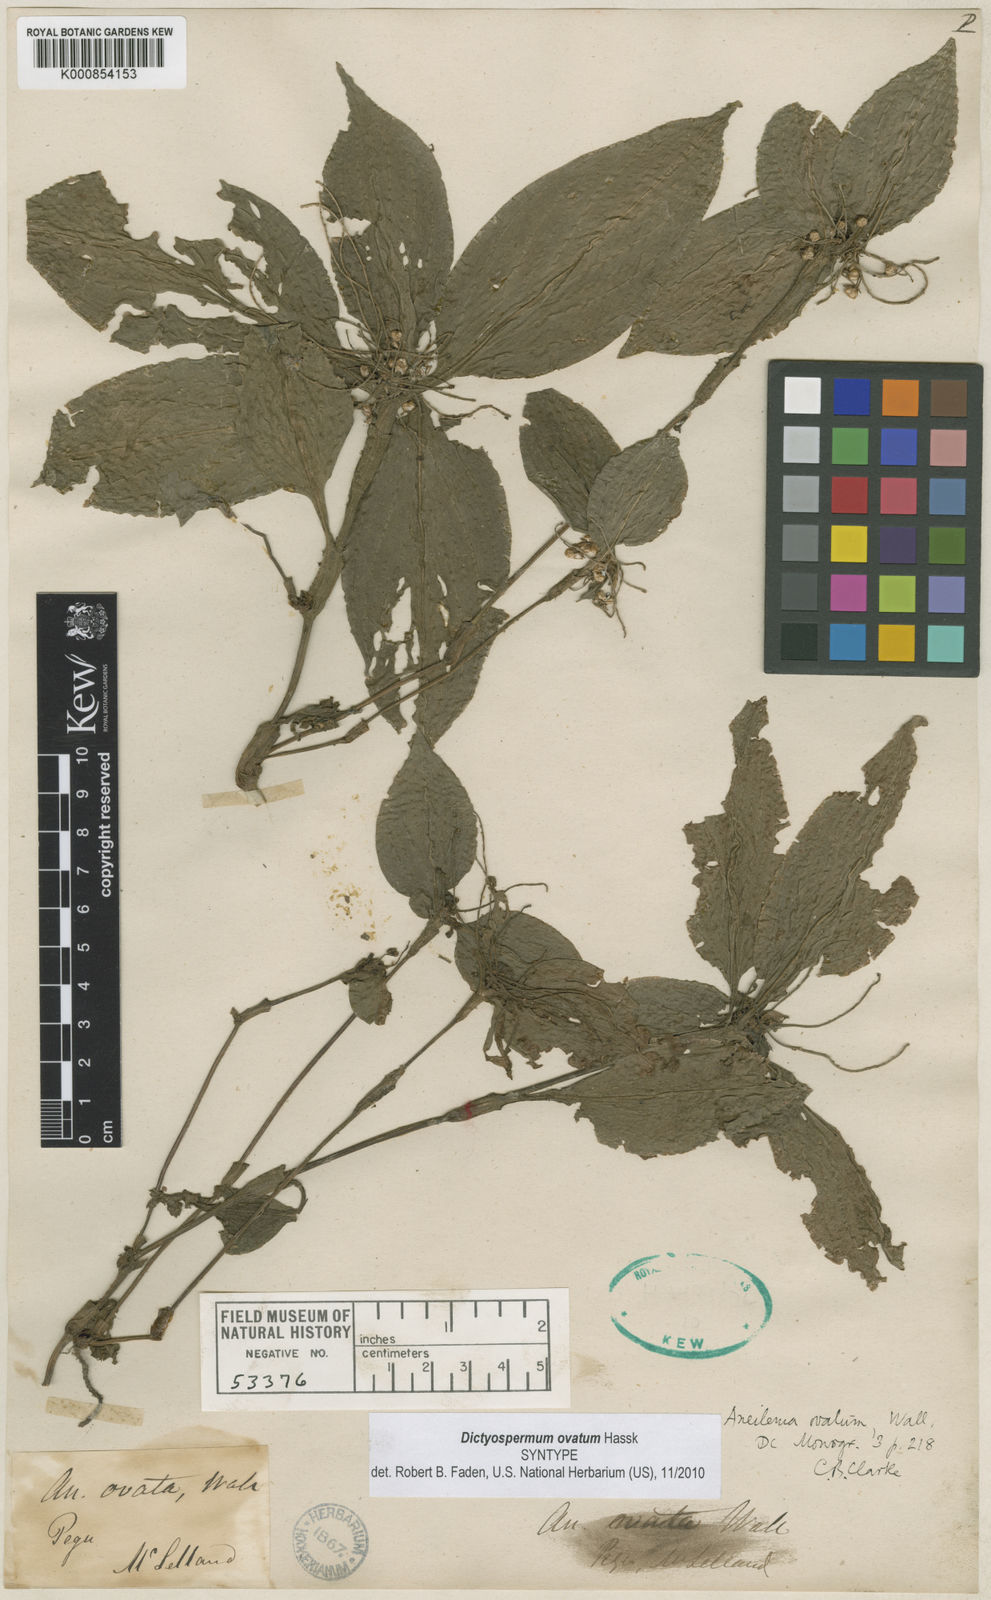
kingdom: Plantae
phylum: Tracheophyta
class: Liliopsida
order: Commelinales
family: Commelinaceae
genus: Dictyospermum
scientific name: Dictyospermum ovatum
